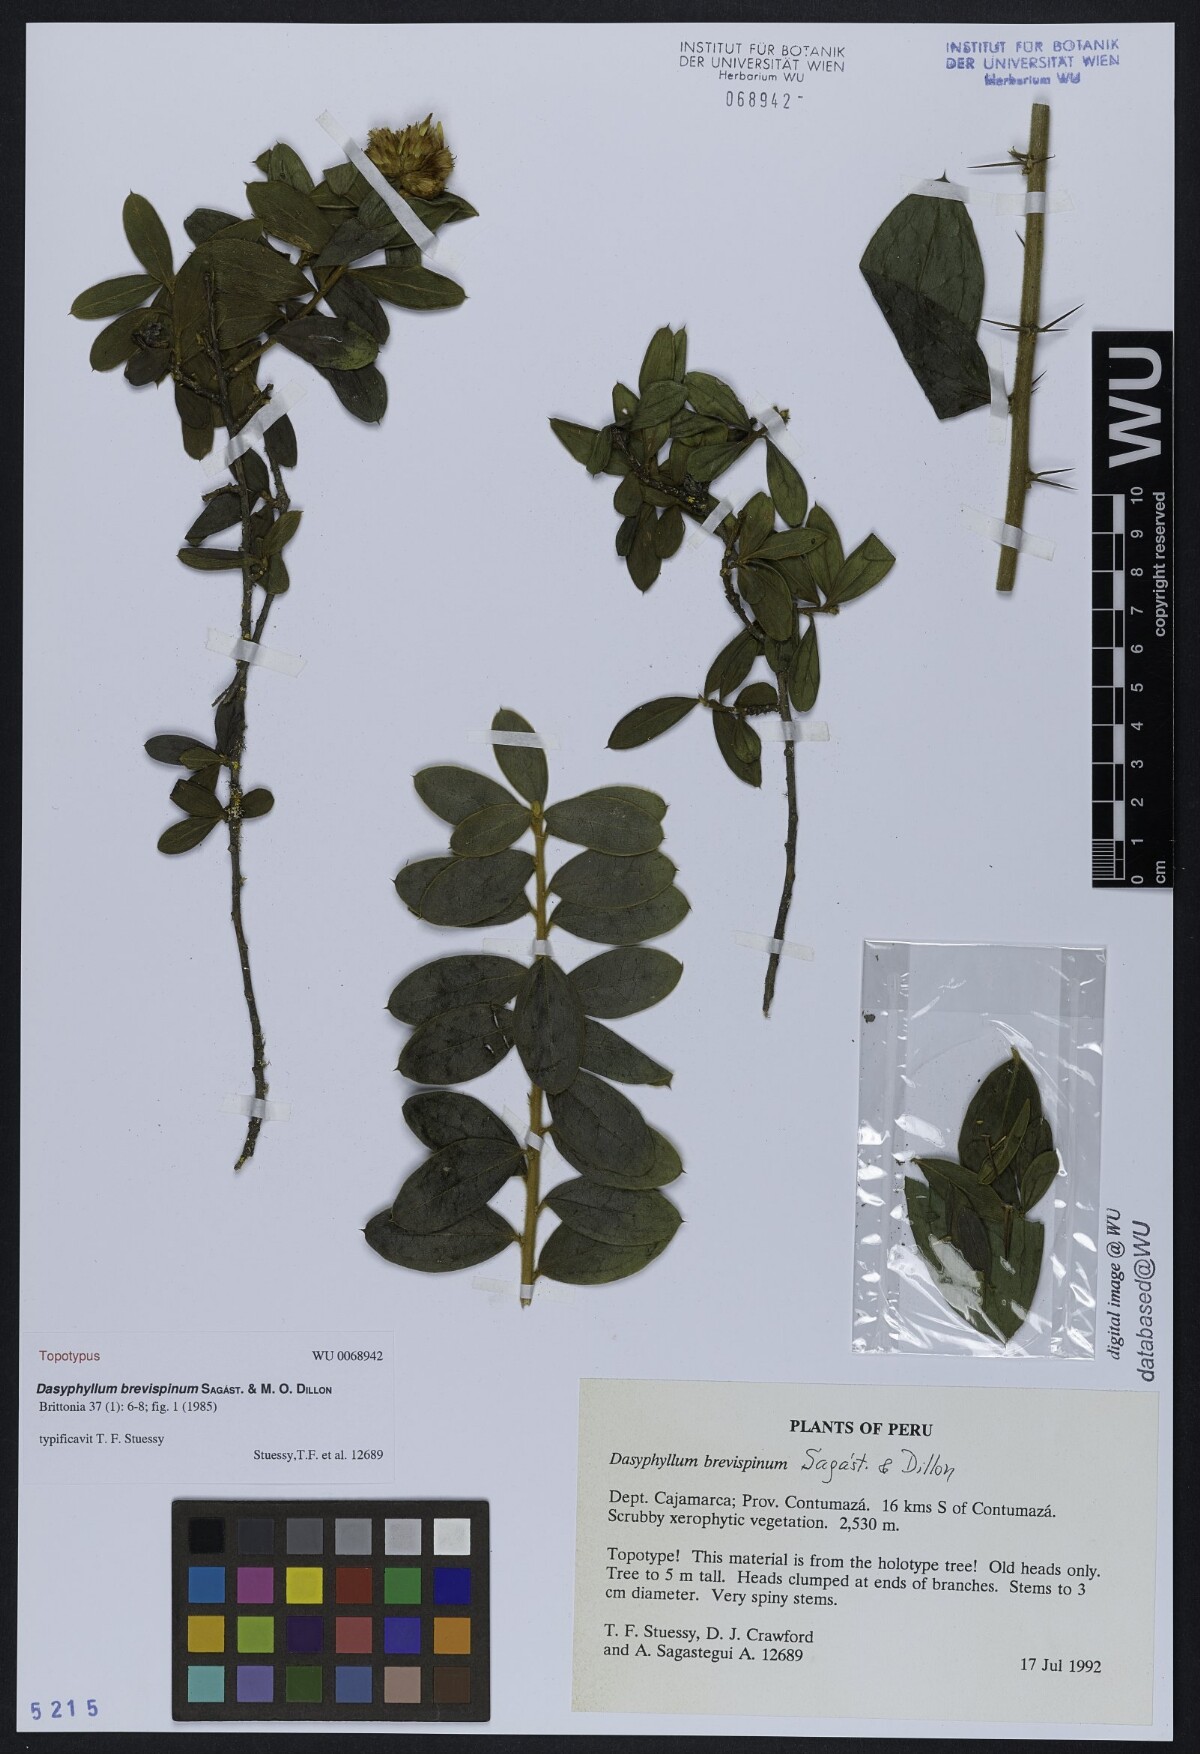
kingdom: Plantae
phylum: Tracheophyta
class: Magnoliopsida
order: Asterales
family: Asteraceae
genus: Dasyphyllum
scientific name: Dasyphyllum brevispinum
